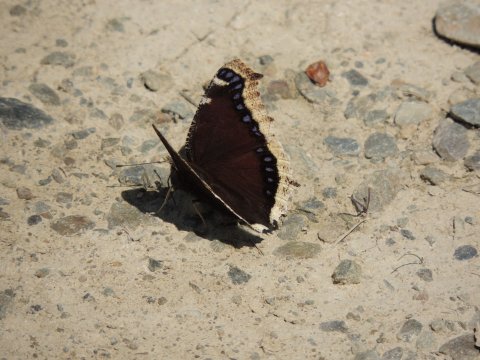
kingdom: Animalia
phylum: Arthropoda
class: Insecta
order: Lepidoptera
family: Nymphalidae
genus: Nymphalis
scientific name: Nymphalis antiopa
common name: Mourning Cloak
